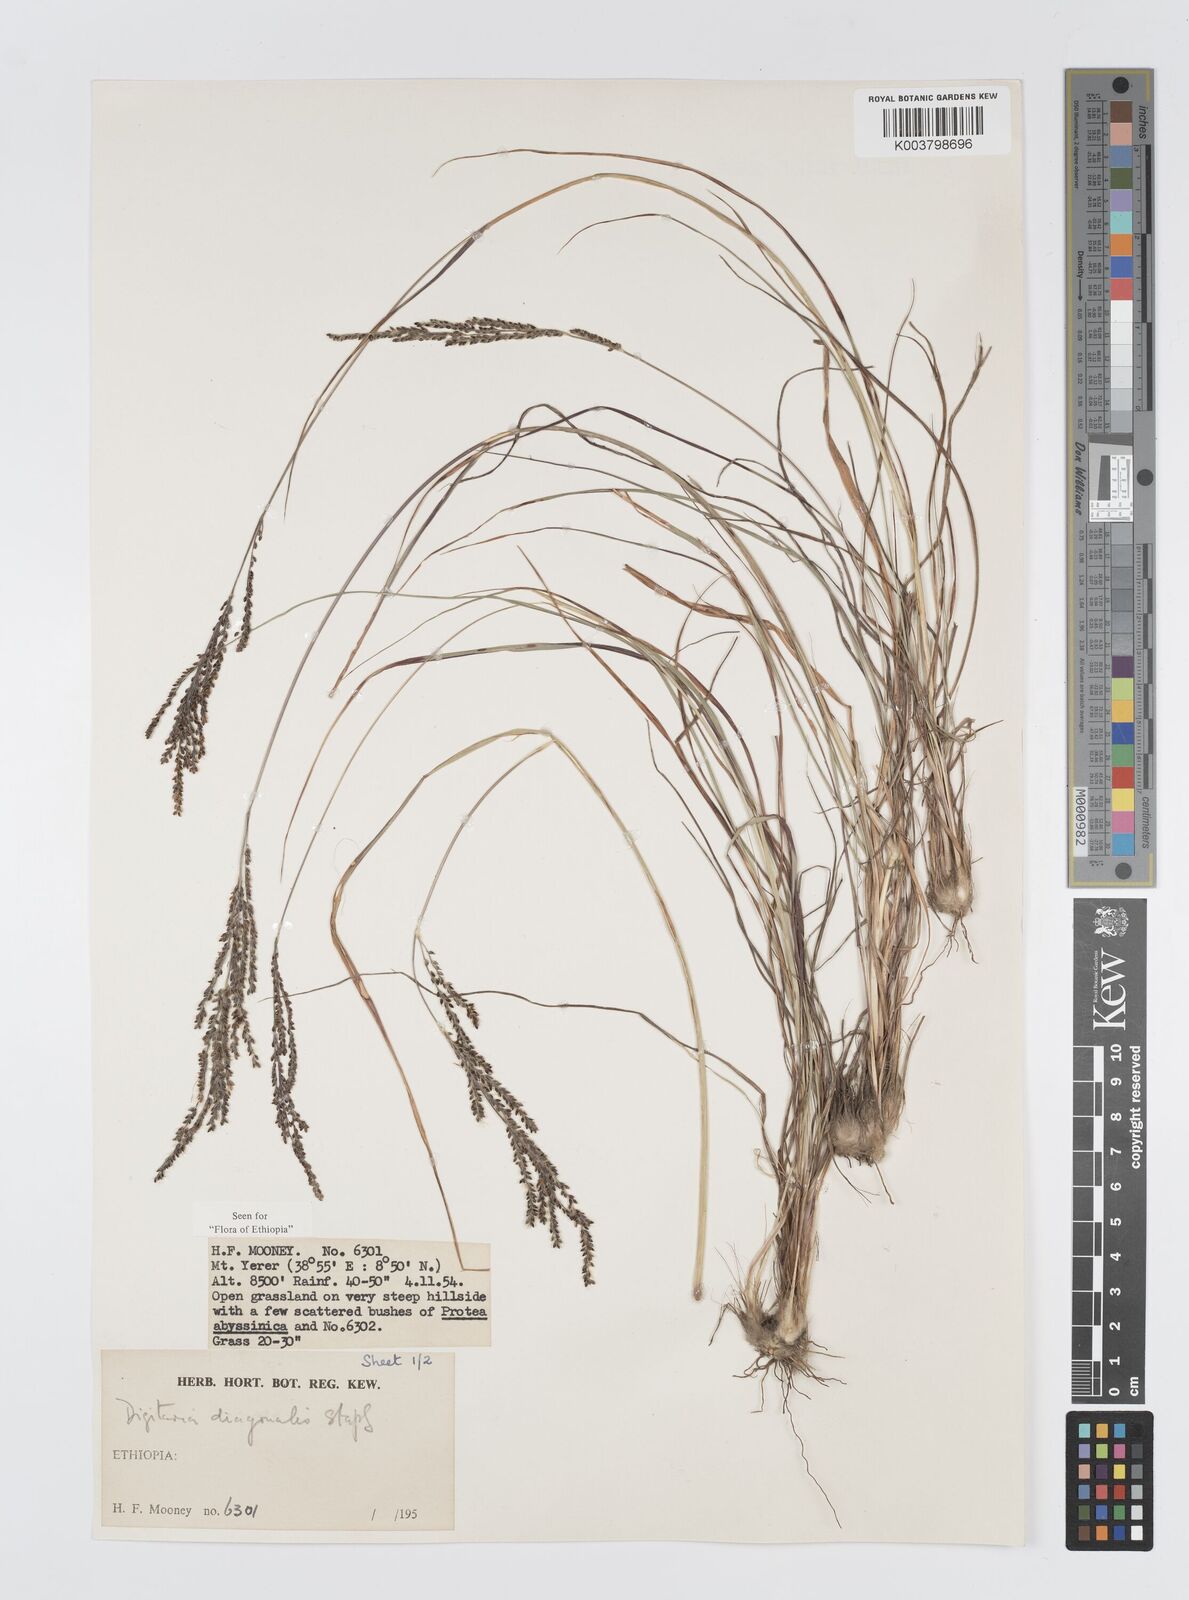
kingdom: Plantae
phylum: Tracheophyta
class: Liliopsida
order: Poales
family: Poaceae
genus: Digitaria
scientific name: Digitaria diagonalis
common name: Brown-seed finger grass
